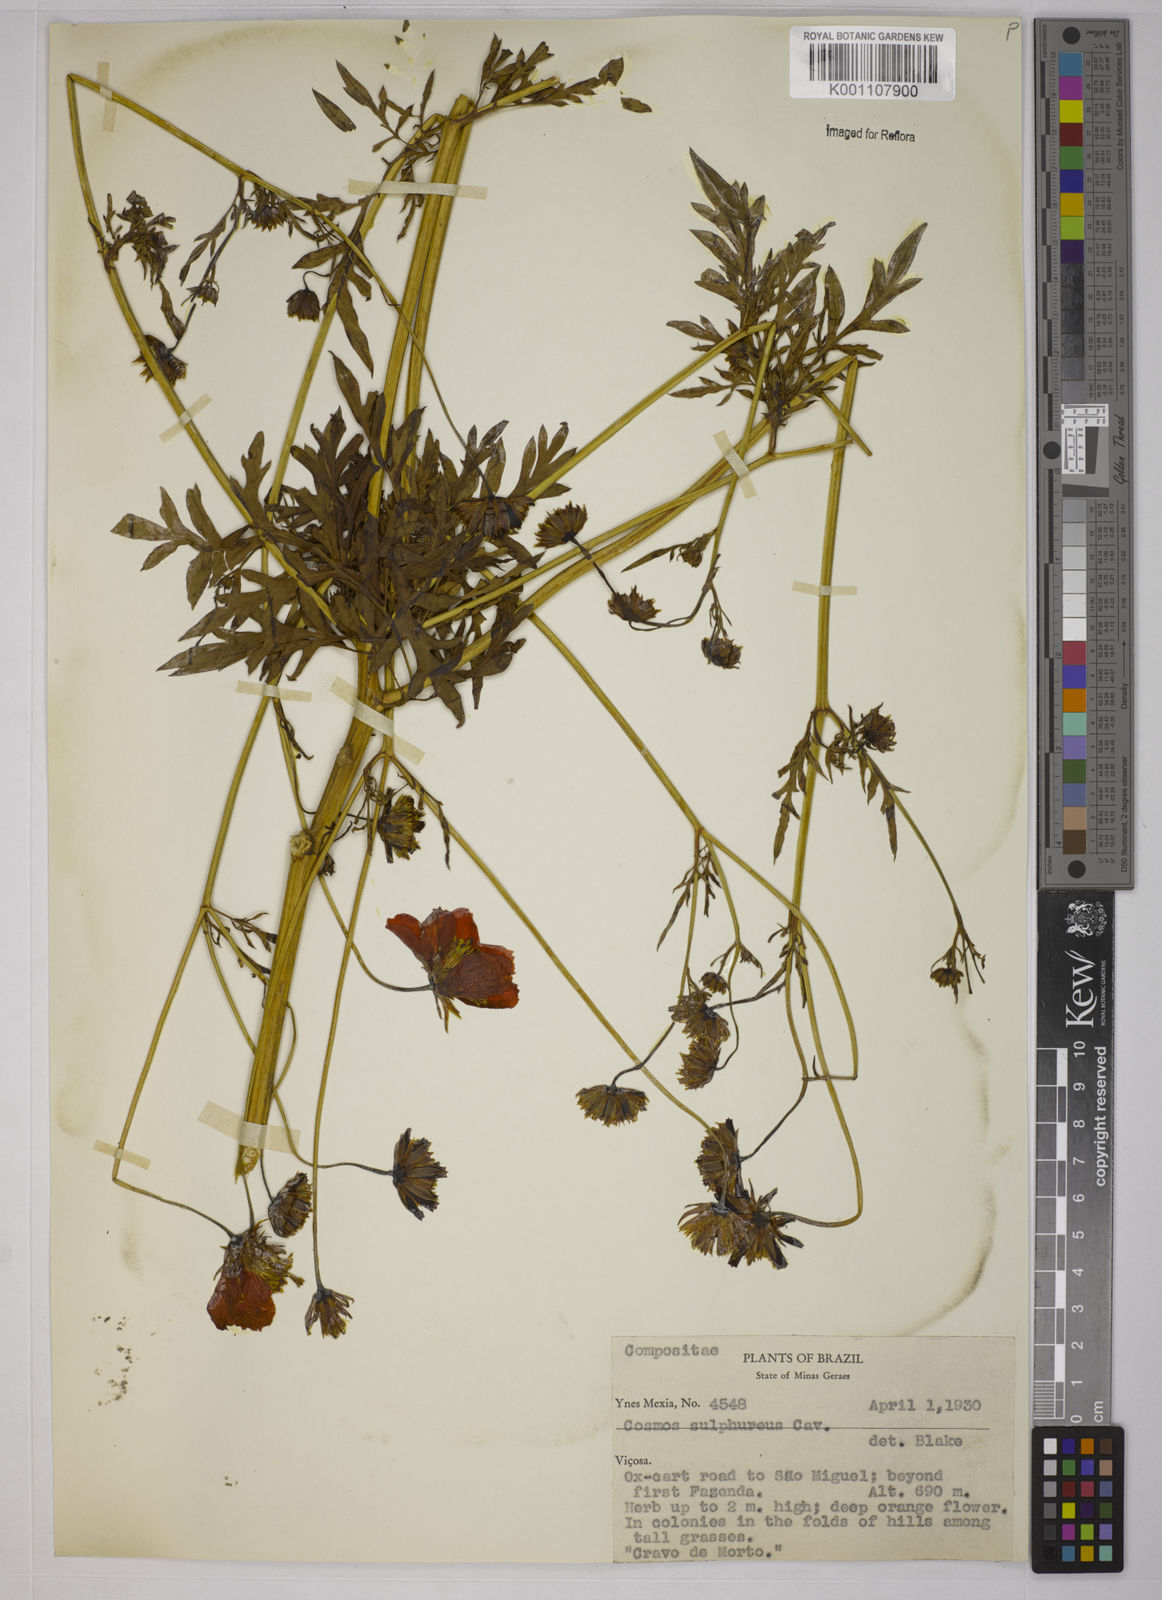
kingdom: Plantae
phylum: Tracheophyta
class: Magnoliopsida
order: Asterales
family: Asteraceae
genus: Cosmos
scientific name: Cosmos sulphureus
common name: Sulphur cosmos
